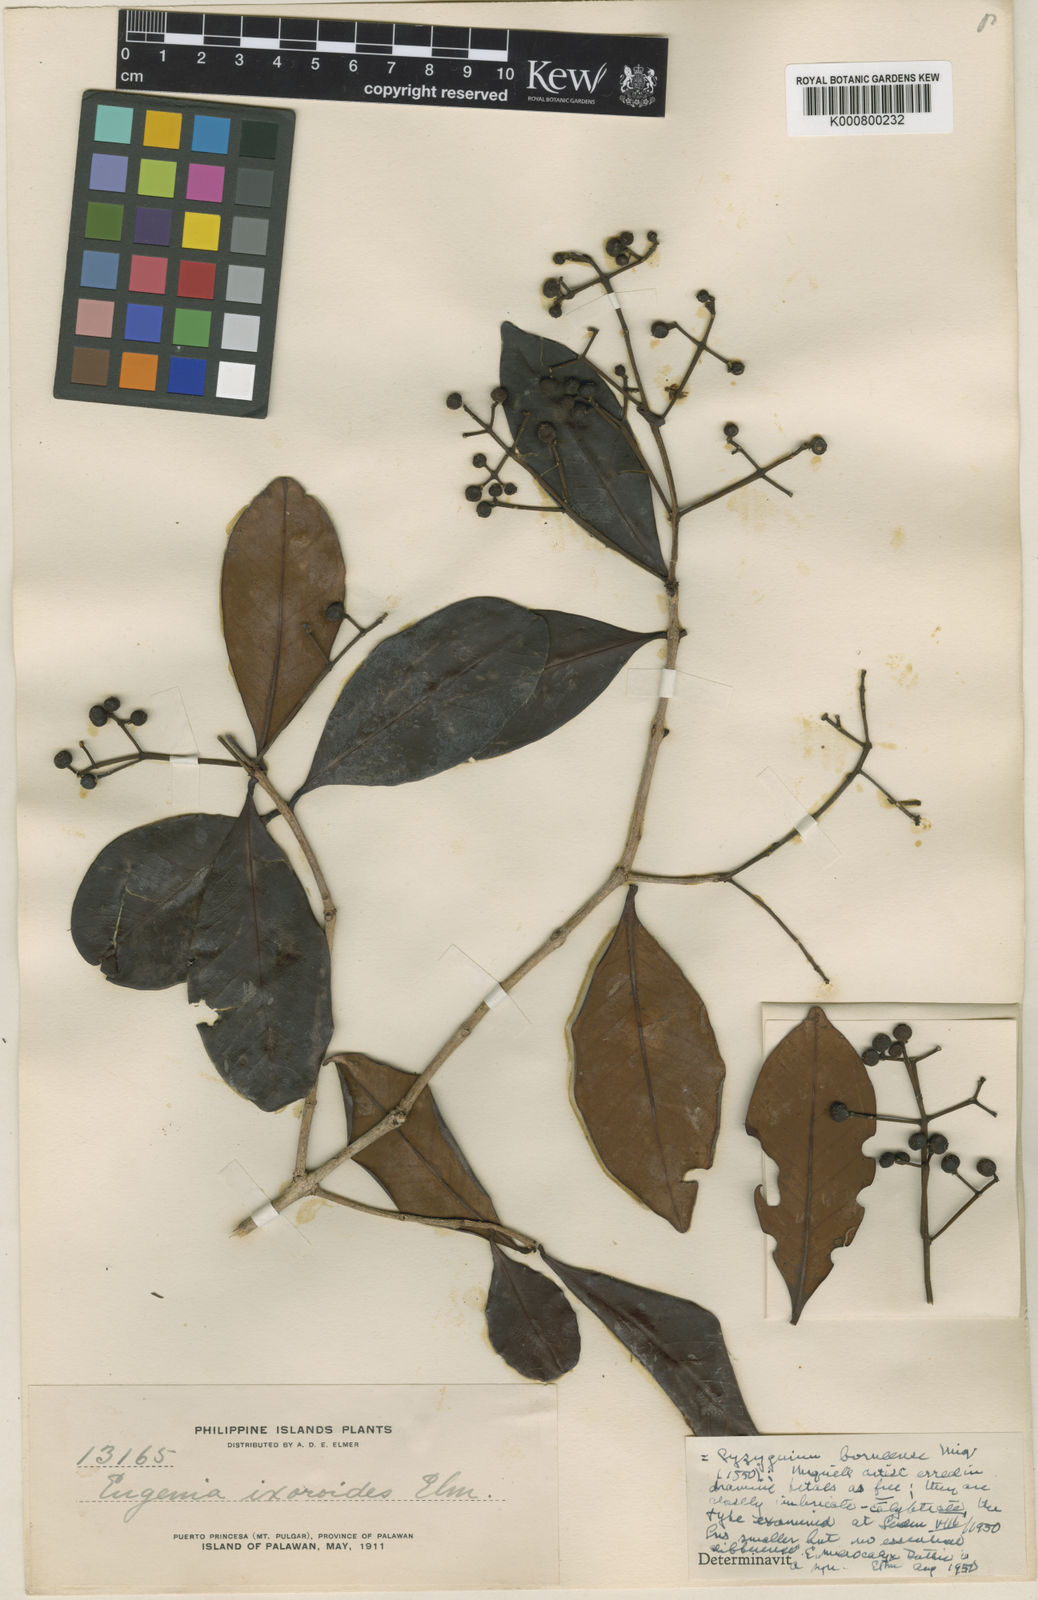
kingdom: Plantae
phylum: Tracheophyta
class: Magnoliopsida
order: Myrtales
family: Myrtaceae
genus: Syzygium
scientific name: Syzygium borneense
